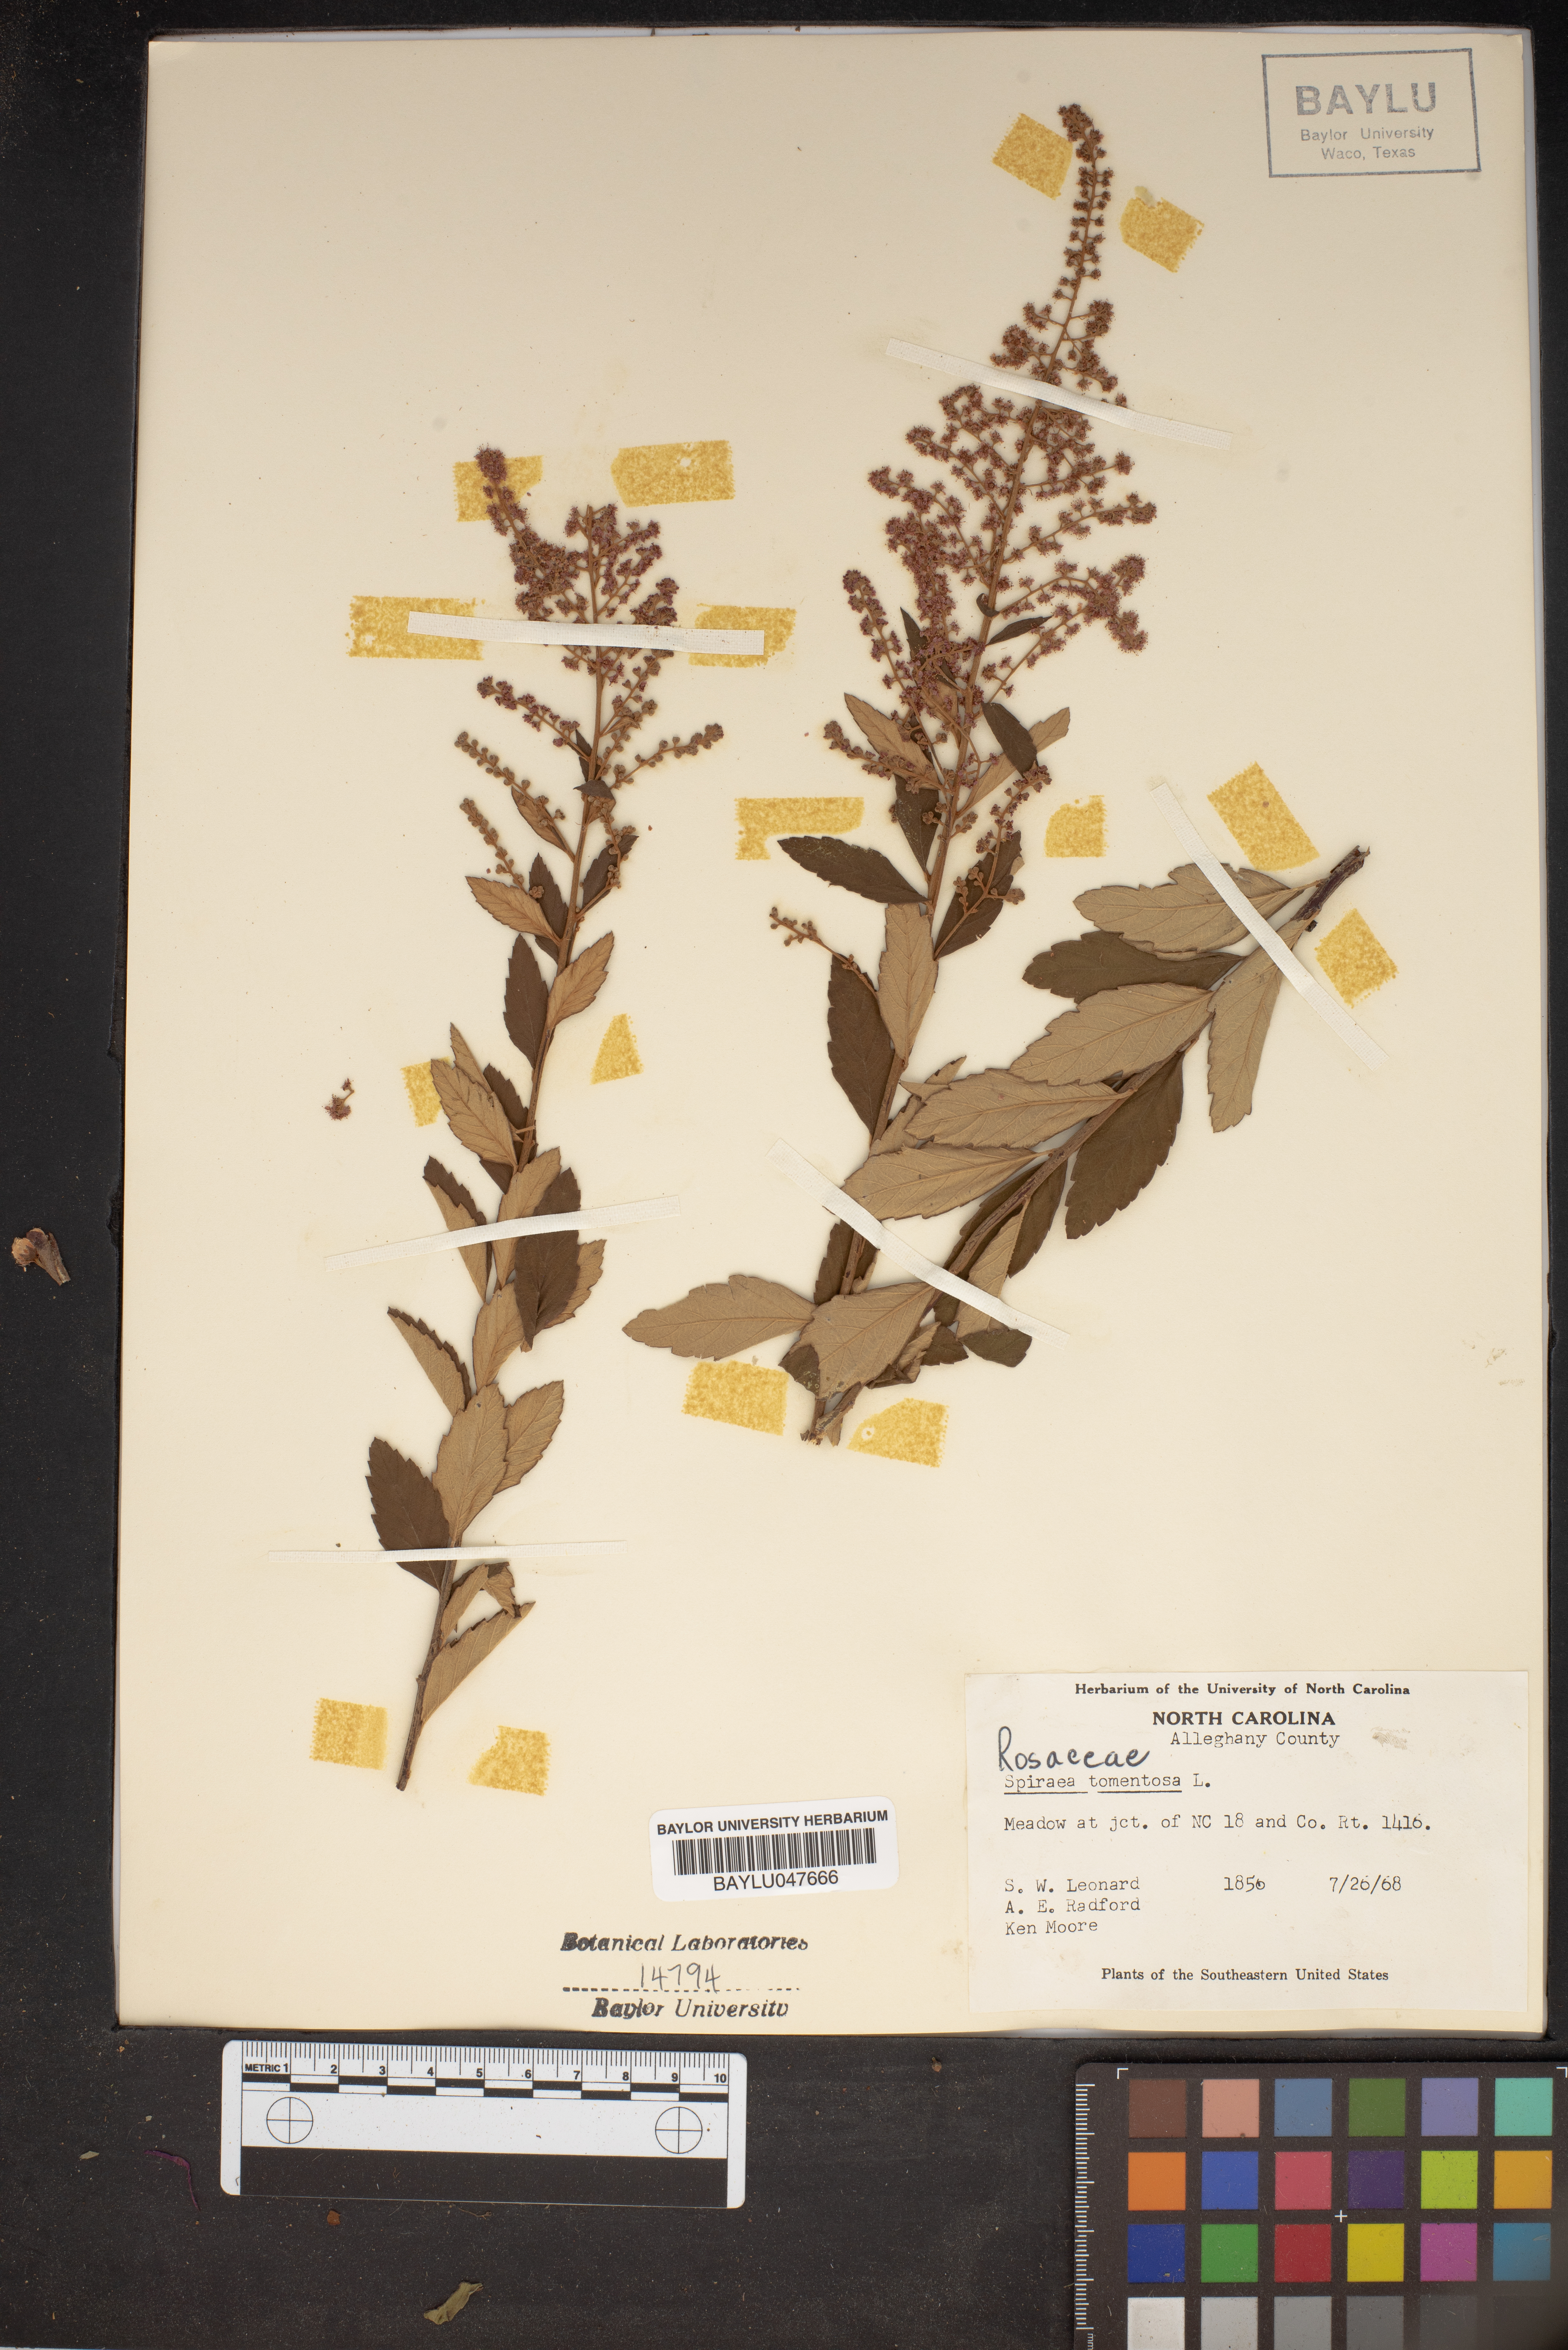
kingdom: Plantae
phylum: Tracheophyta
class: Magnoliopsida
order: Rosales
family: Rosaceae
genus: Spiraea
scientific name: Spiraea tomentosa
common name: Hardhack
